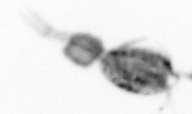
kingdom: Animalia
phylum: Arthropoda
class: Copepoda
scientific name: Copepoda
